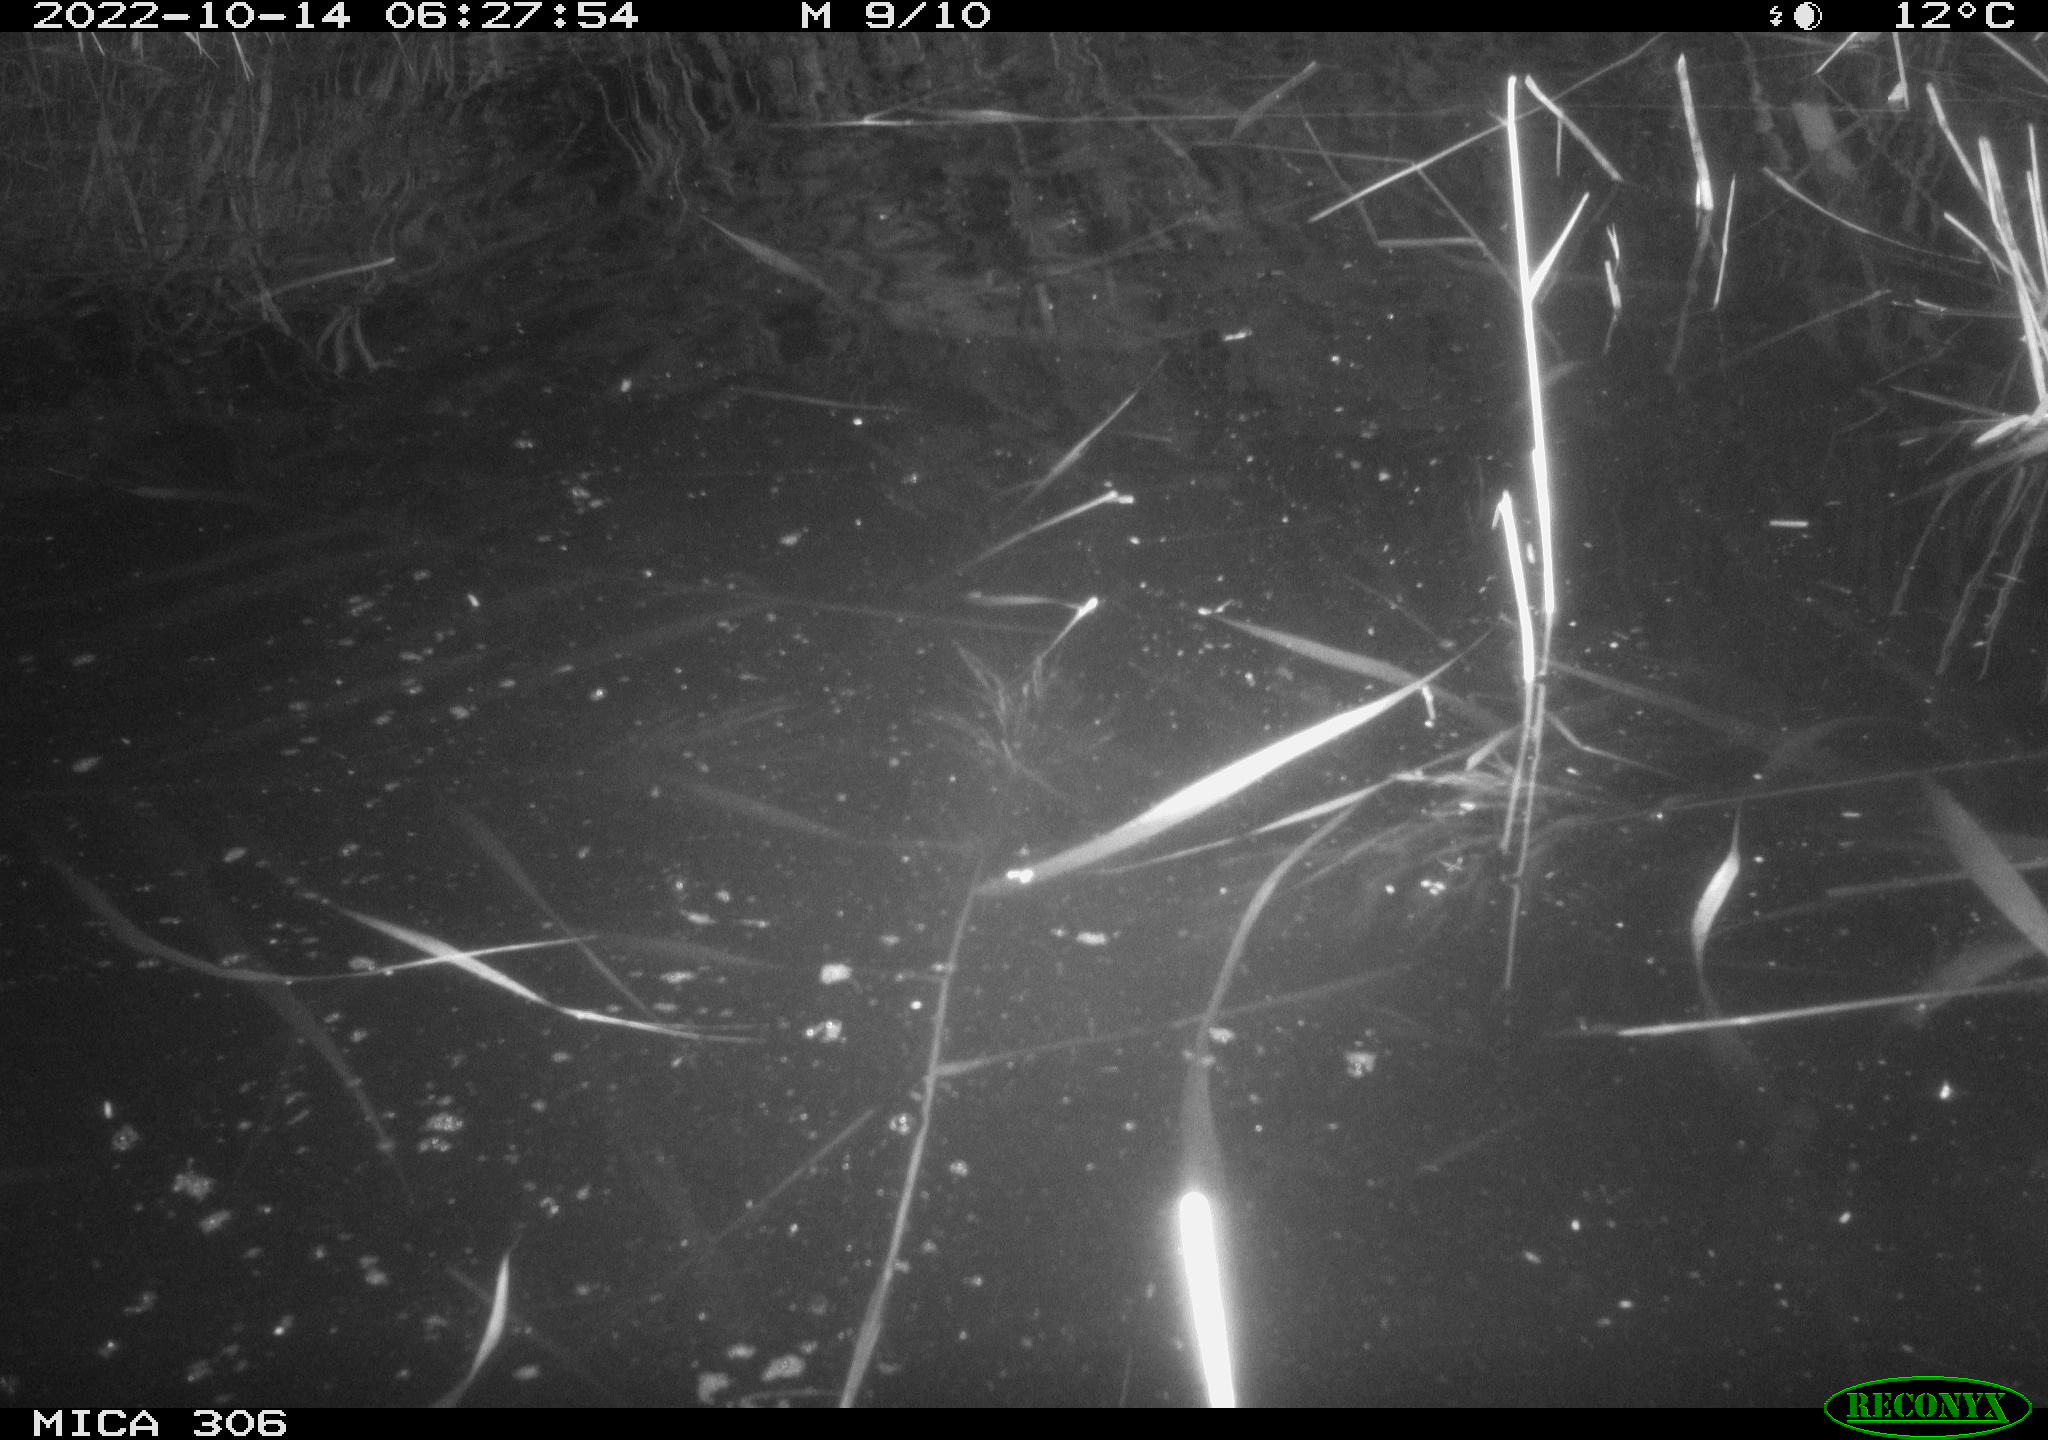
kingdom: Animalia
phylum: Chordata
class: Mammalia
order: Rodentia
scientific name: Rodentia
